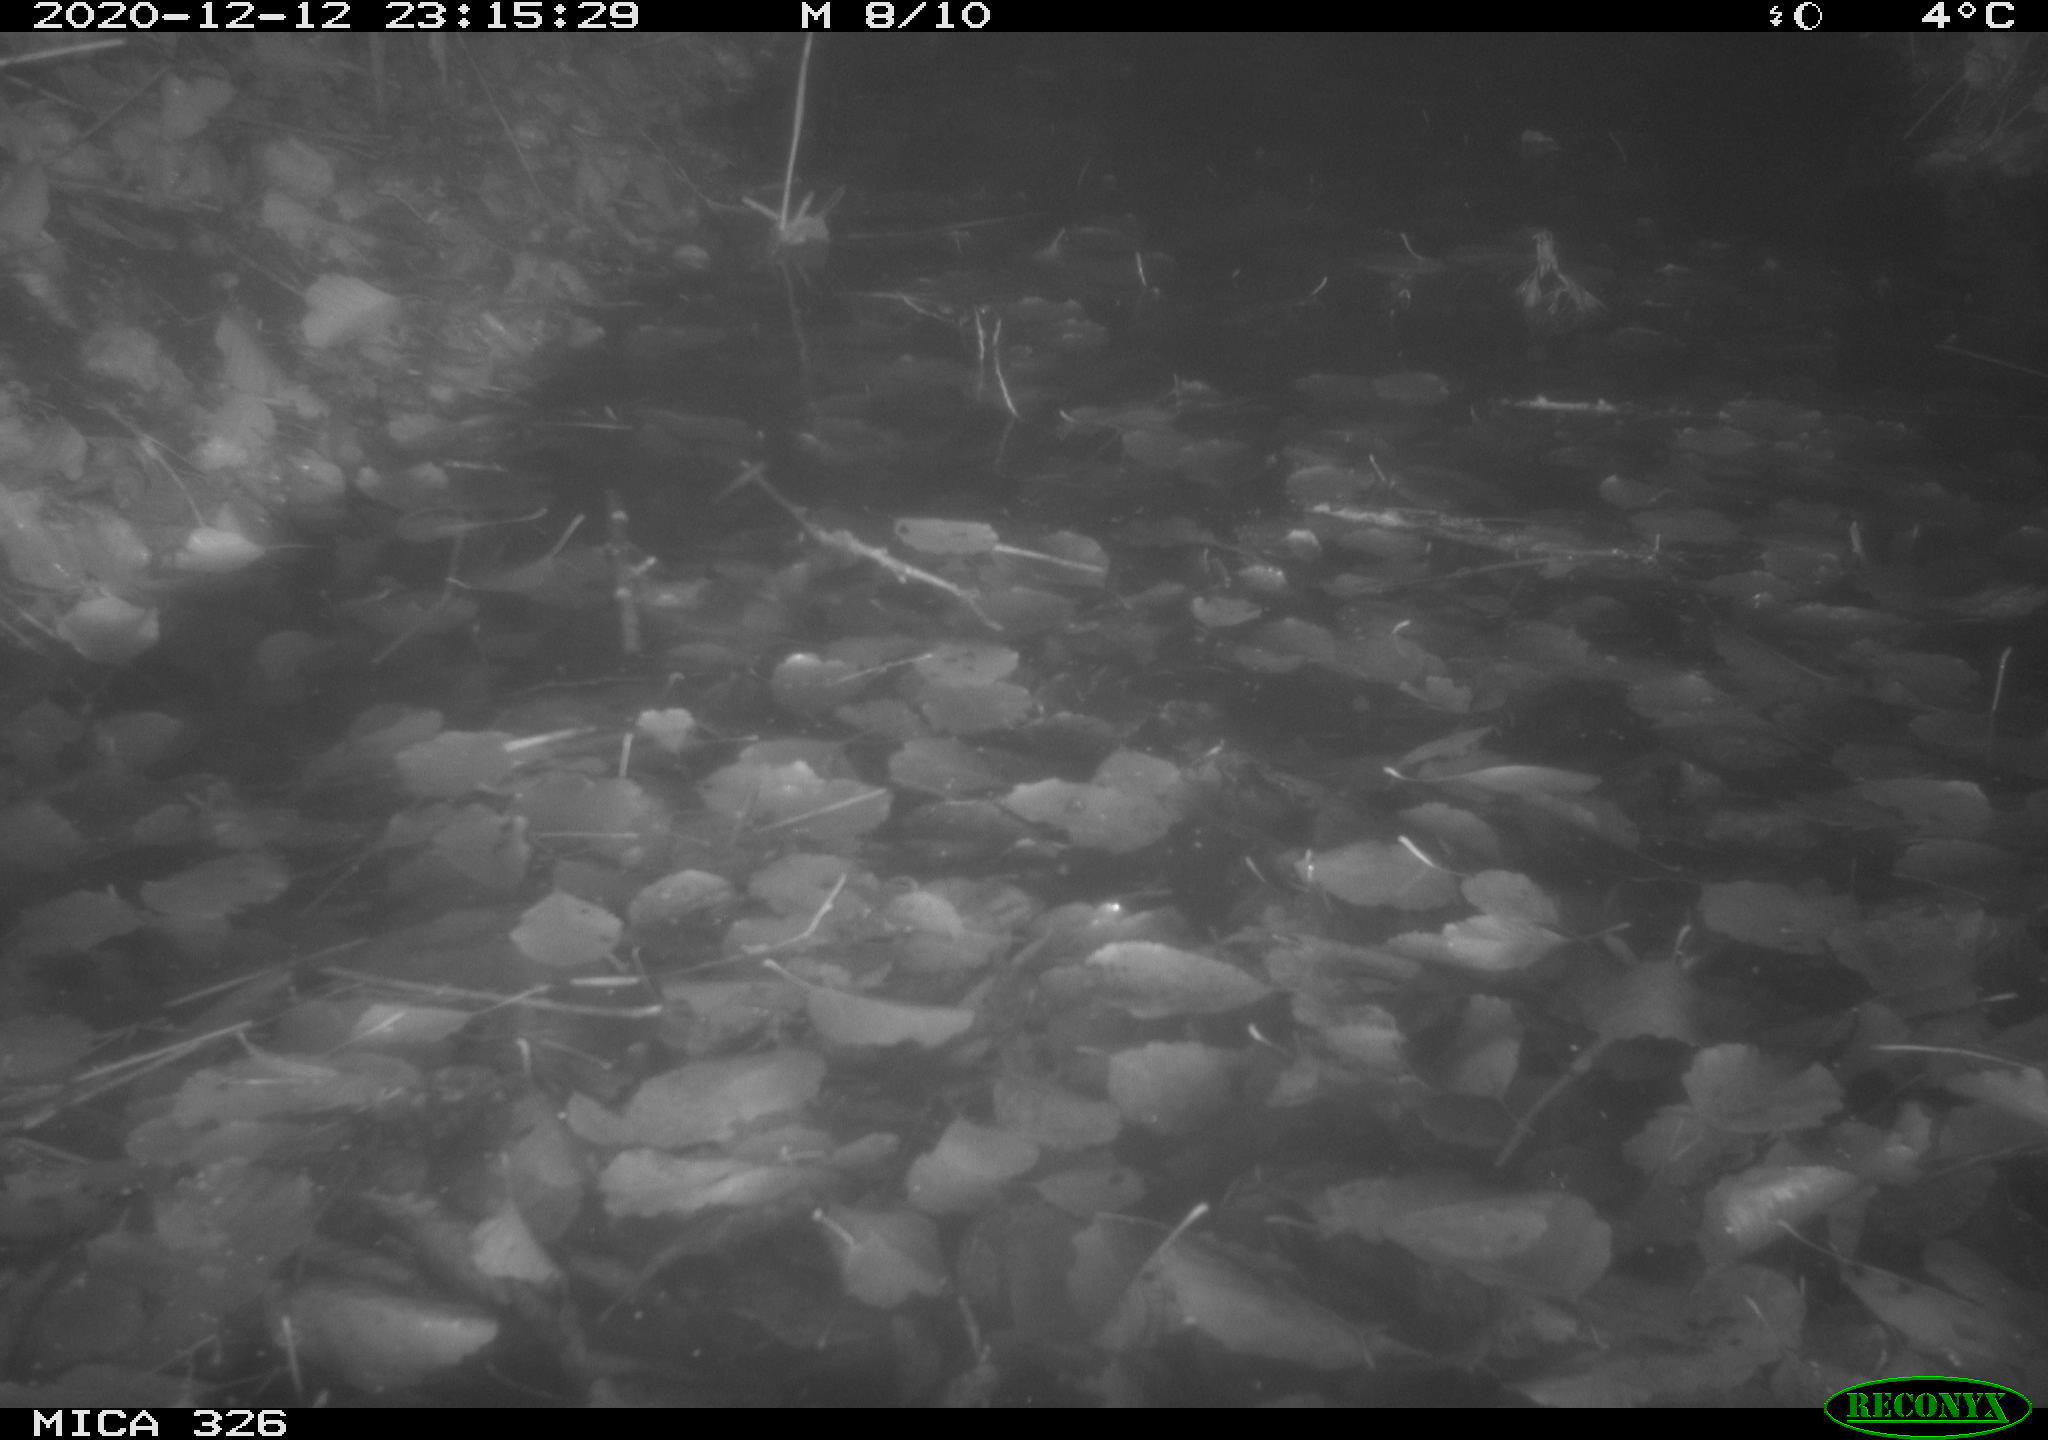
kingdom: Animalia
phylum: Chordata
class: Mammalia
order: Carnivora
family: Mustelidae
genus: Lutra
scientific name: Lutra lutra
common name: European otter
